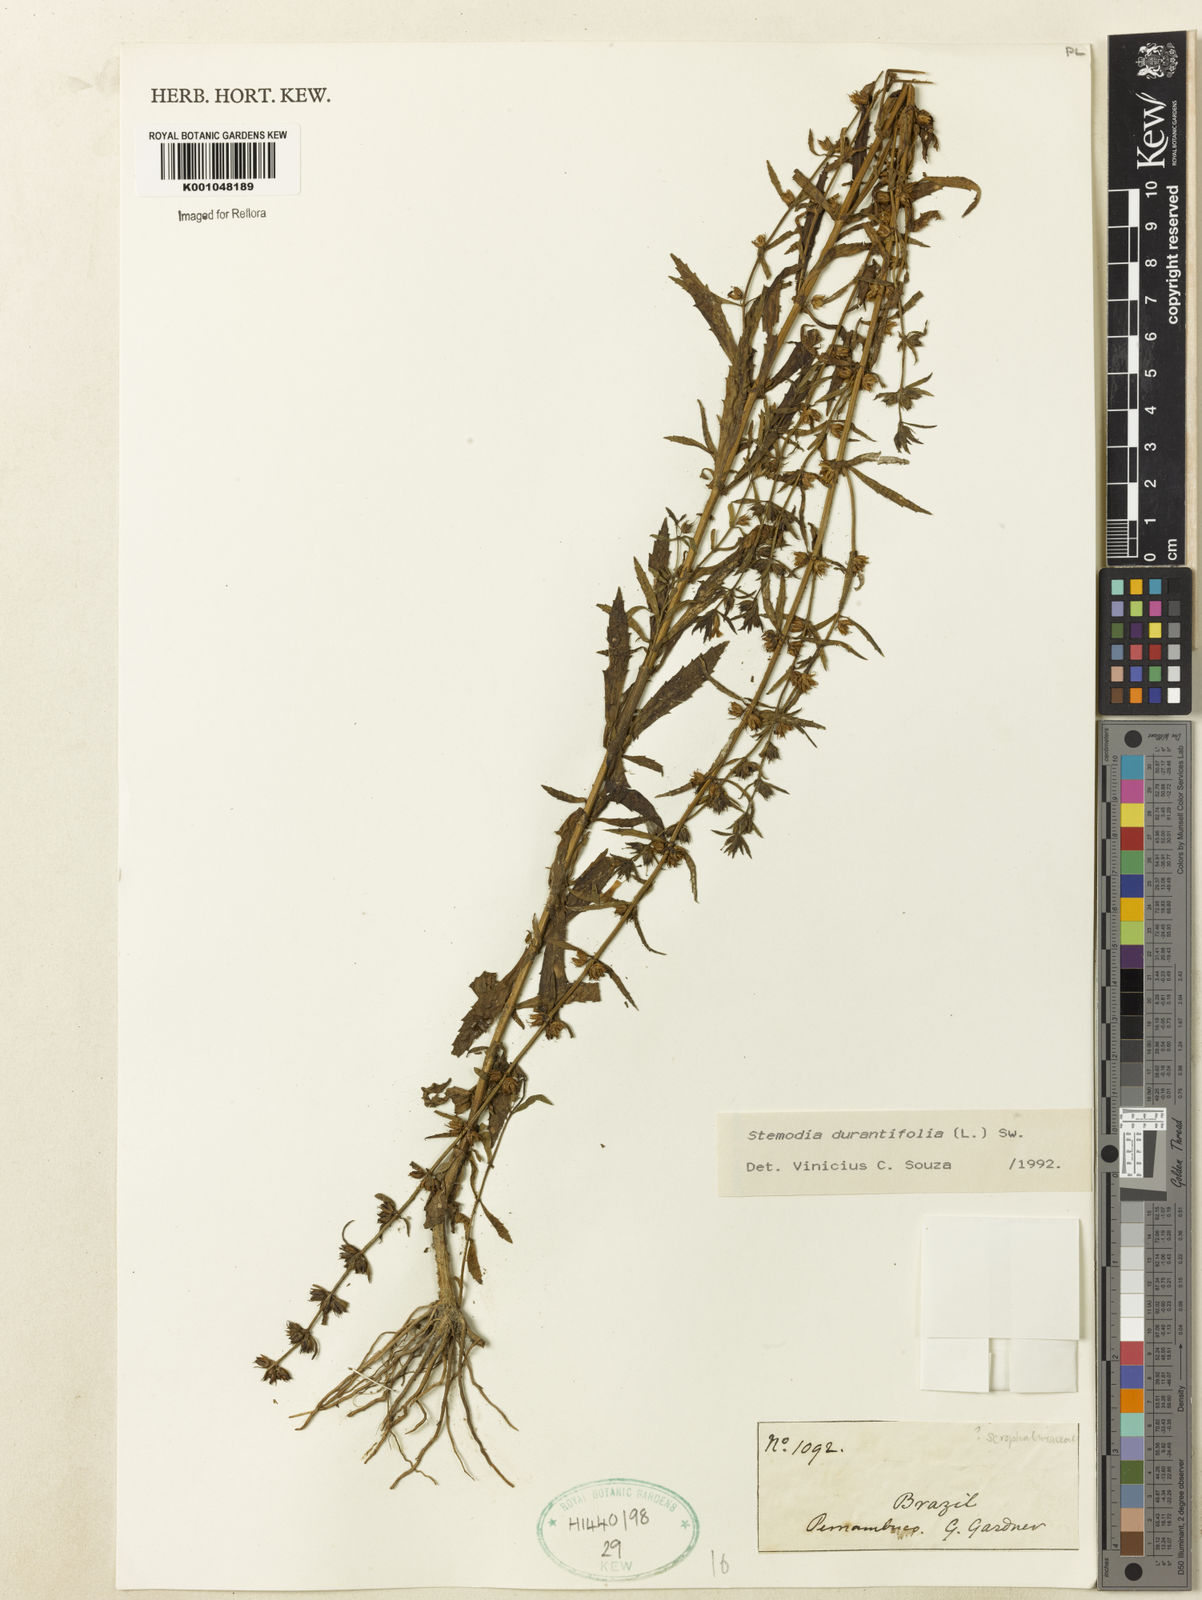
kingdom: Plantae
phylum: Tracheophyta
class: Magnoliopsida
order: Lamiales
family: Plantaginaceae
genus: Stemodia
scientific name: Stemodia durantifolia
